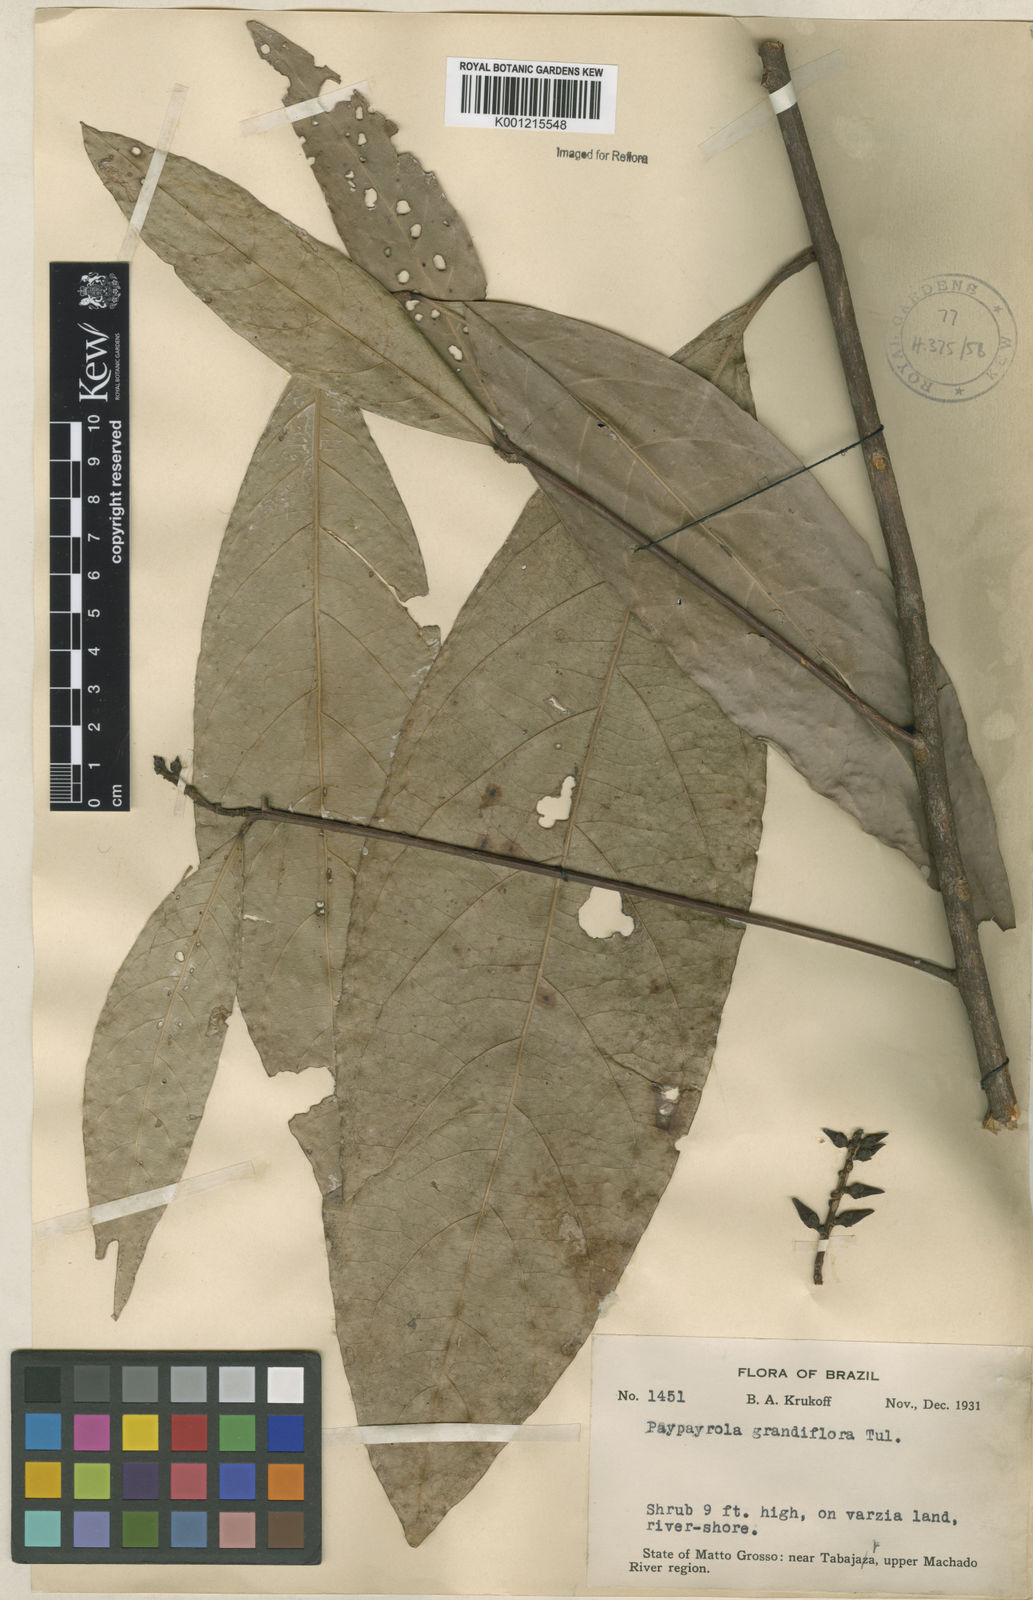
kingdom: Plantae
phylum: Tracheophyta
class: Magnoliopsida
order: Malpighiales
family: Violaceae
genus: Paypayrola
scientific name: Paypayrola grandiflora
